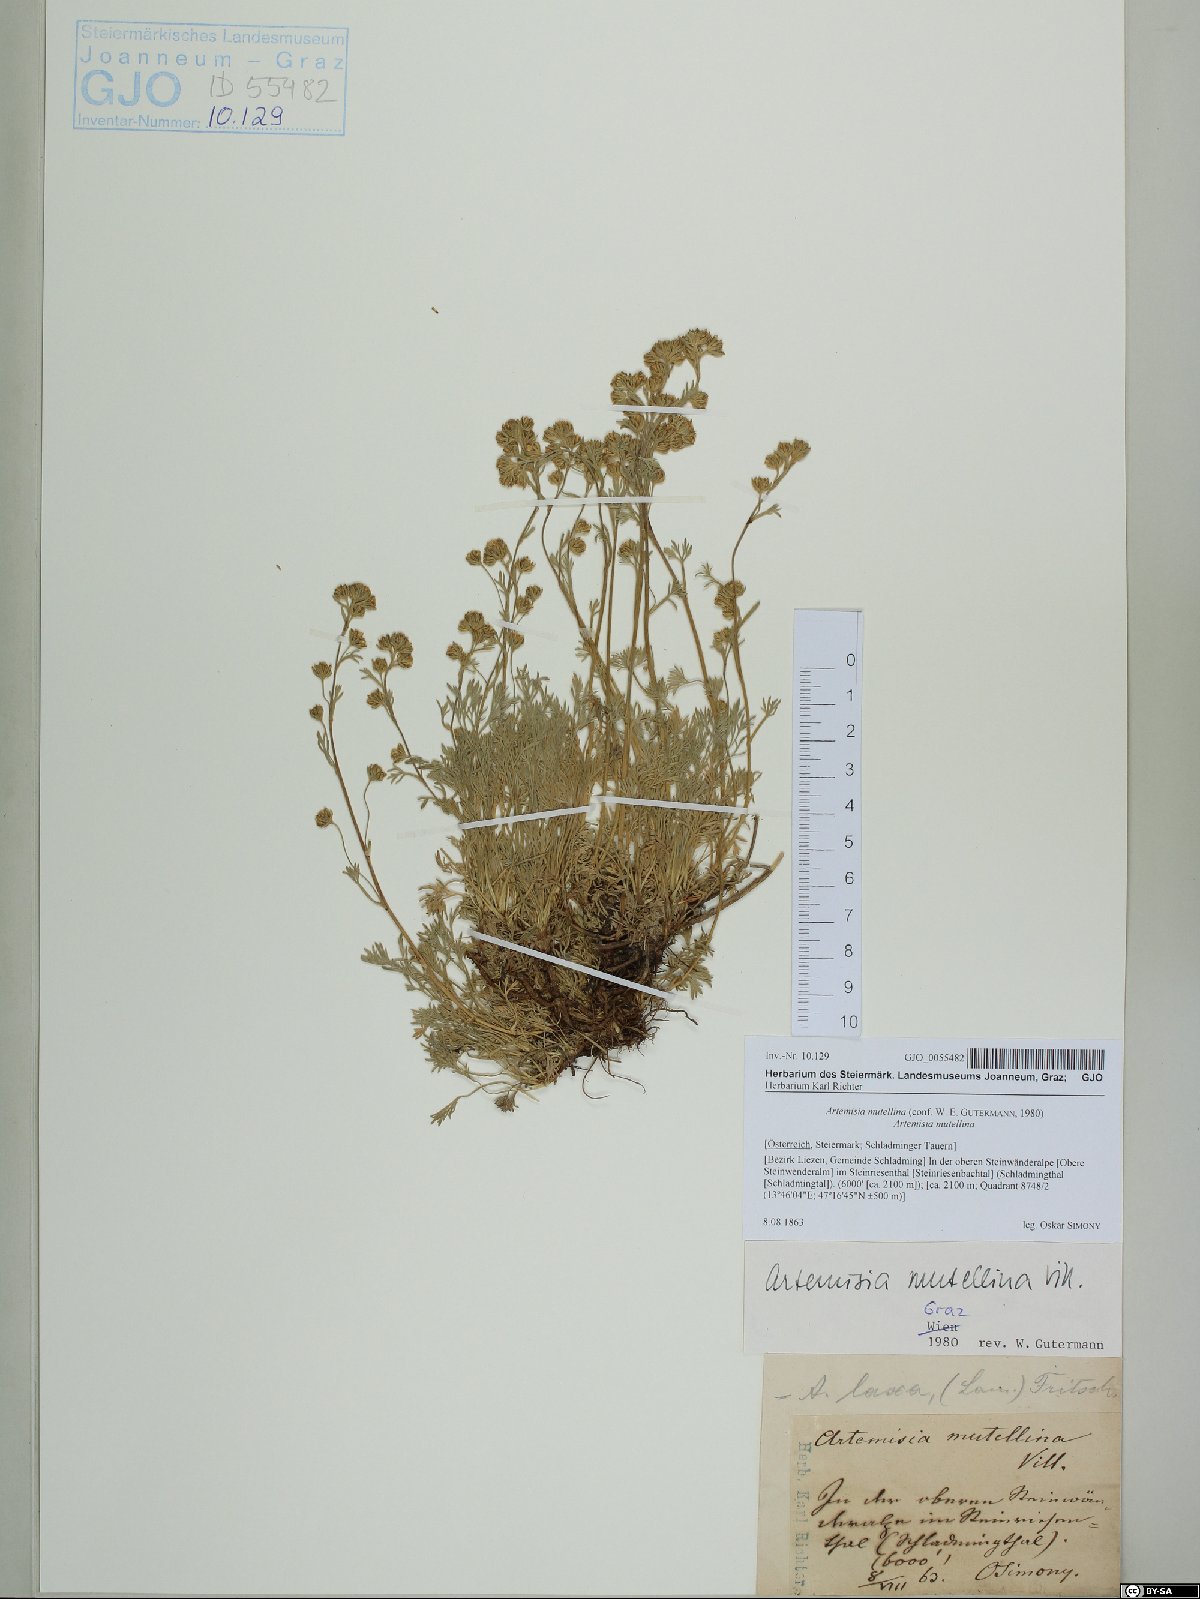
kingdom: Plantae
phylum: Tracheophyta
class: Magnoliopsida
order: Asterales
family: Asteraceae
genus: Artemisia
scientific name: Artemisia mutellina
